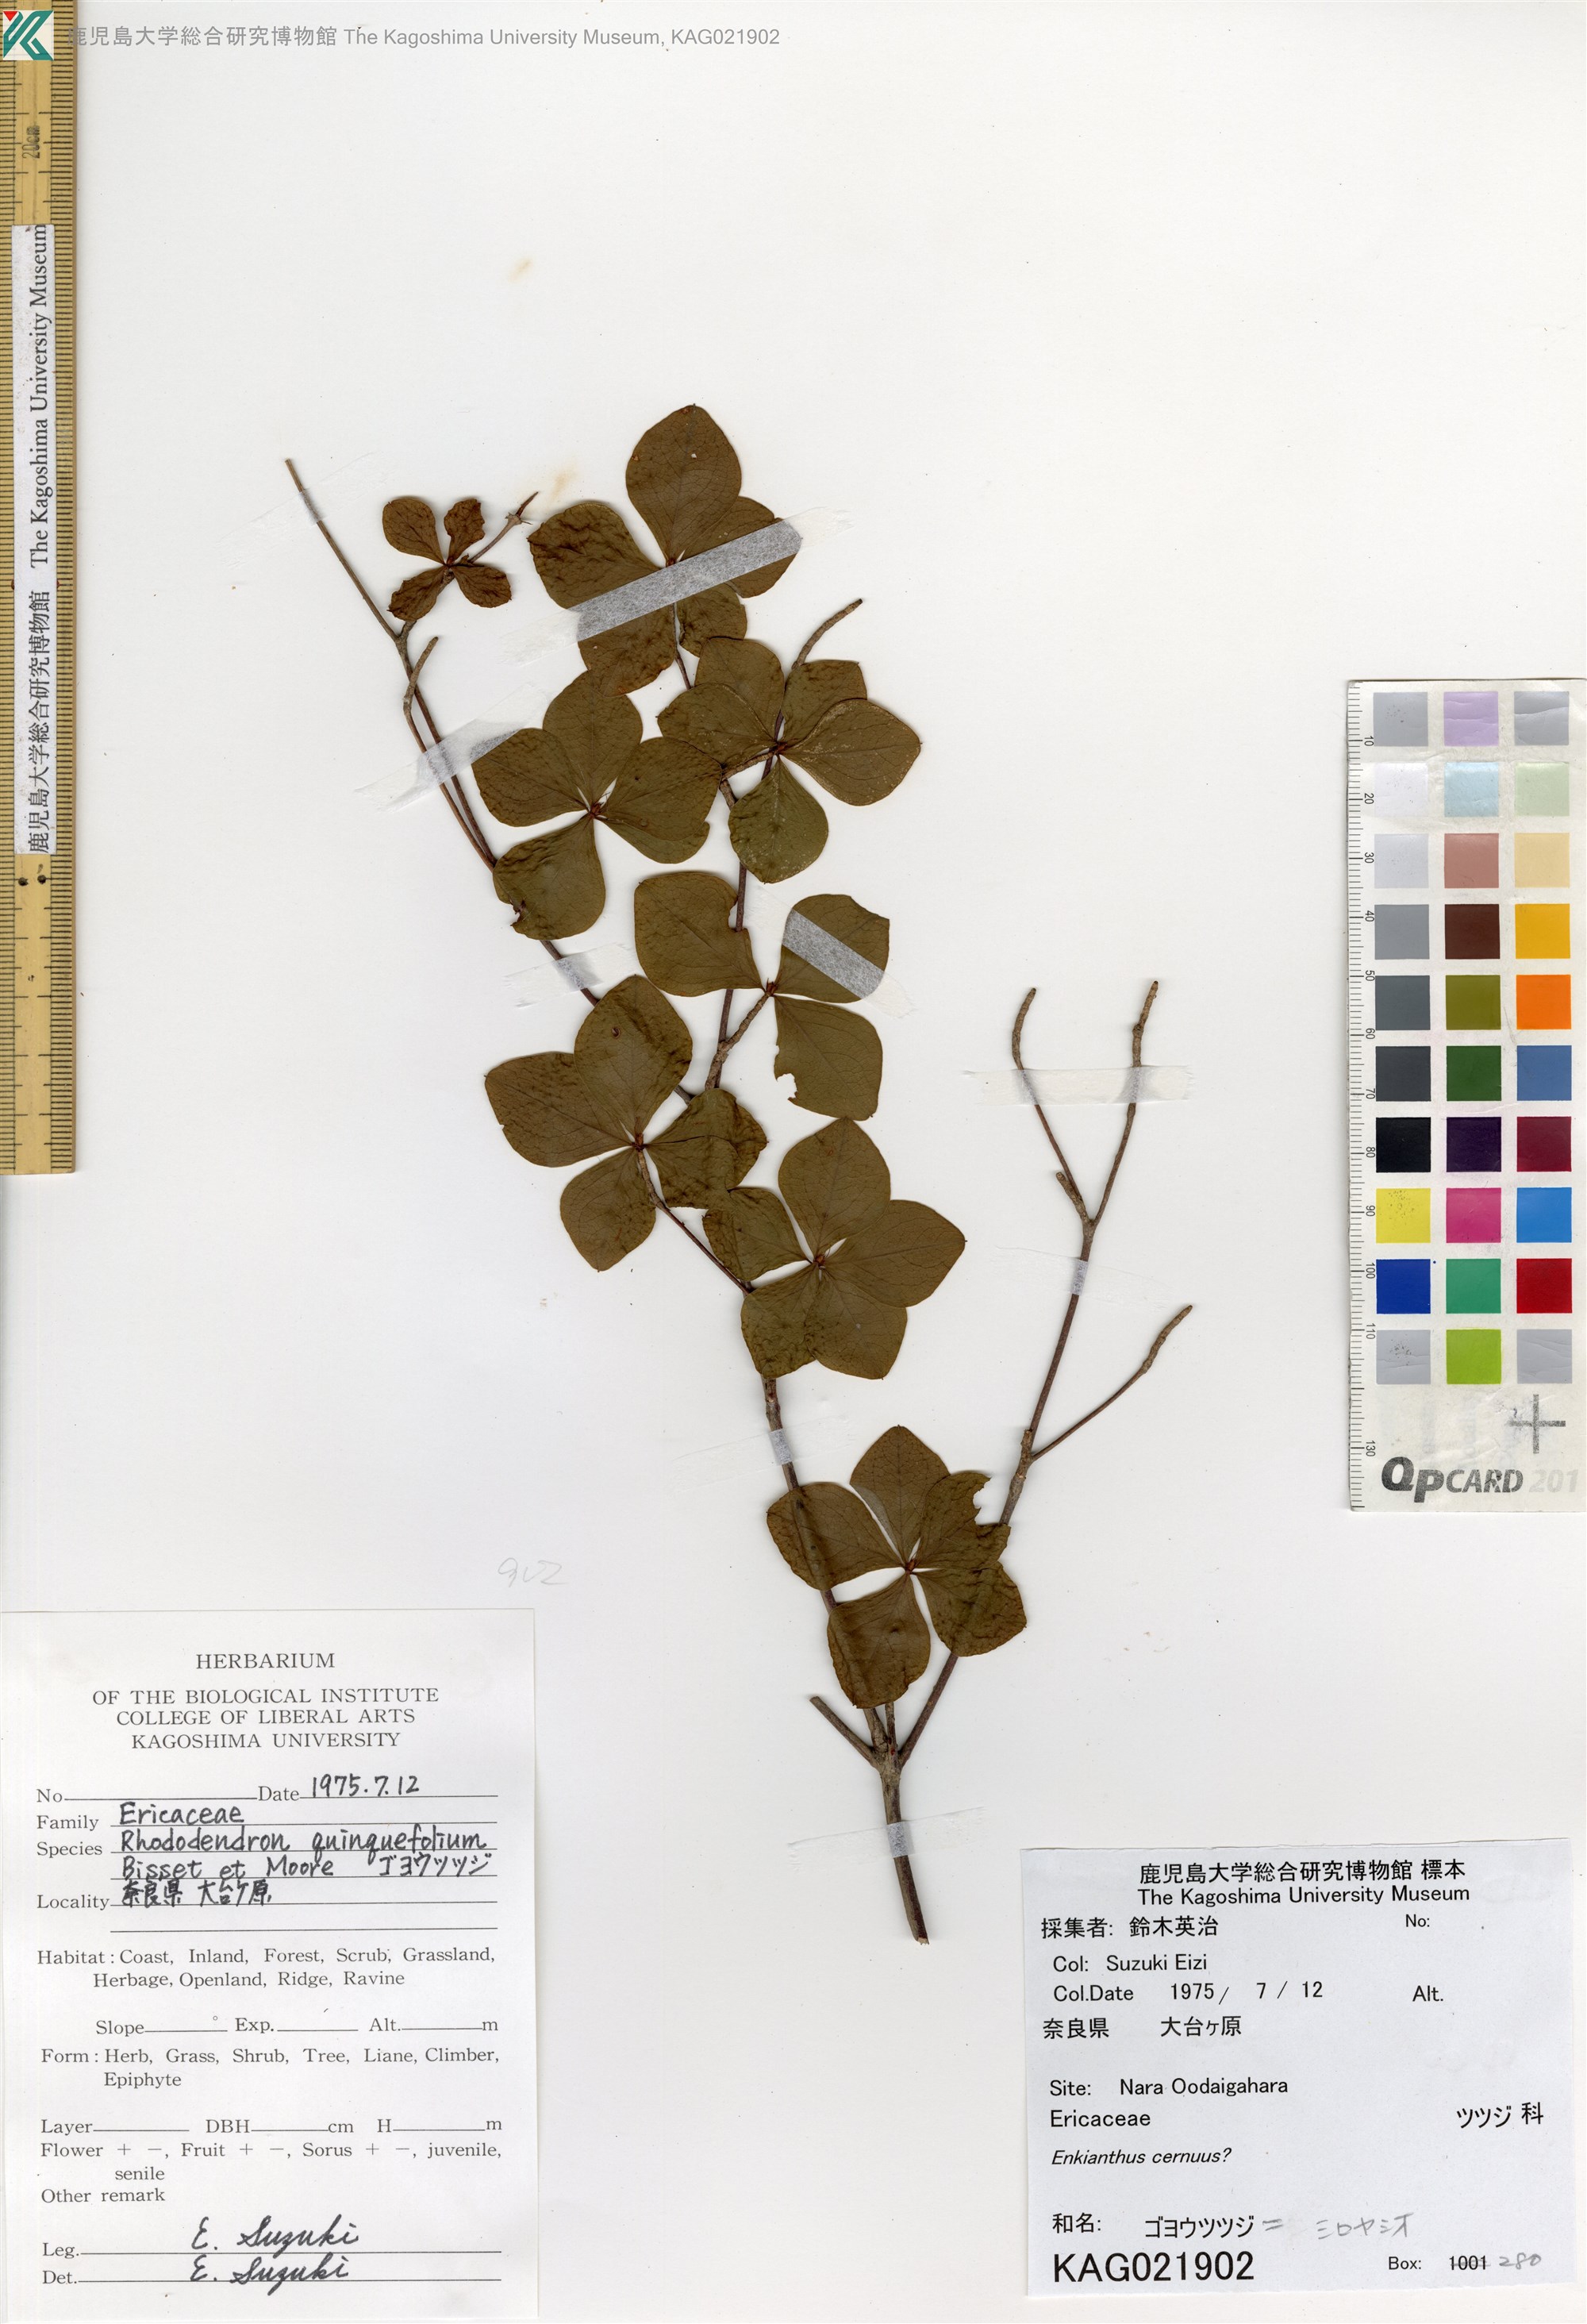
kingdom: Plantae
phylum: Tracheophyta
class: Magnoliopsida
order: Ericales
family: Ericaceae
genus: Rhododendron
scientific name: Rhododendron quinquefolium
